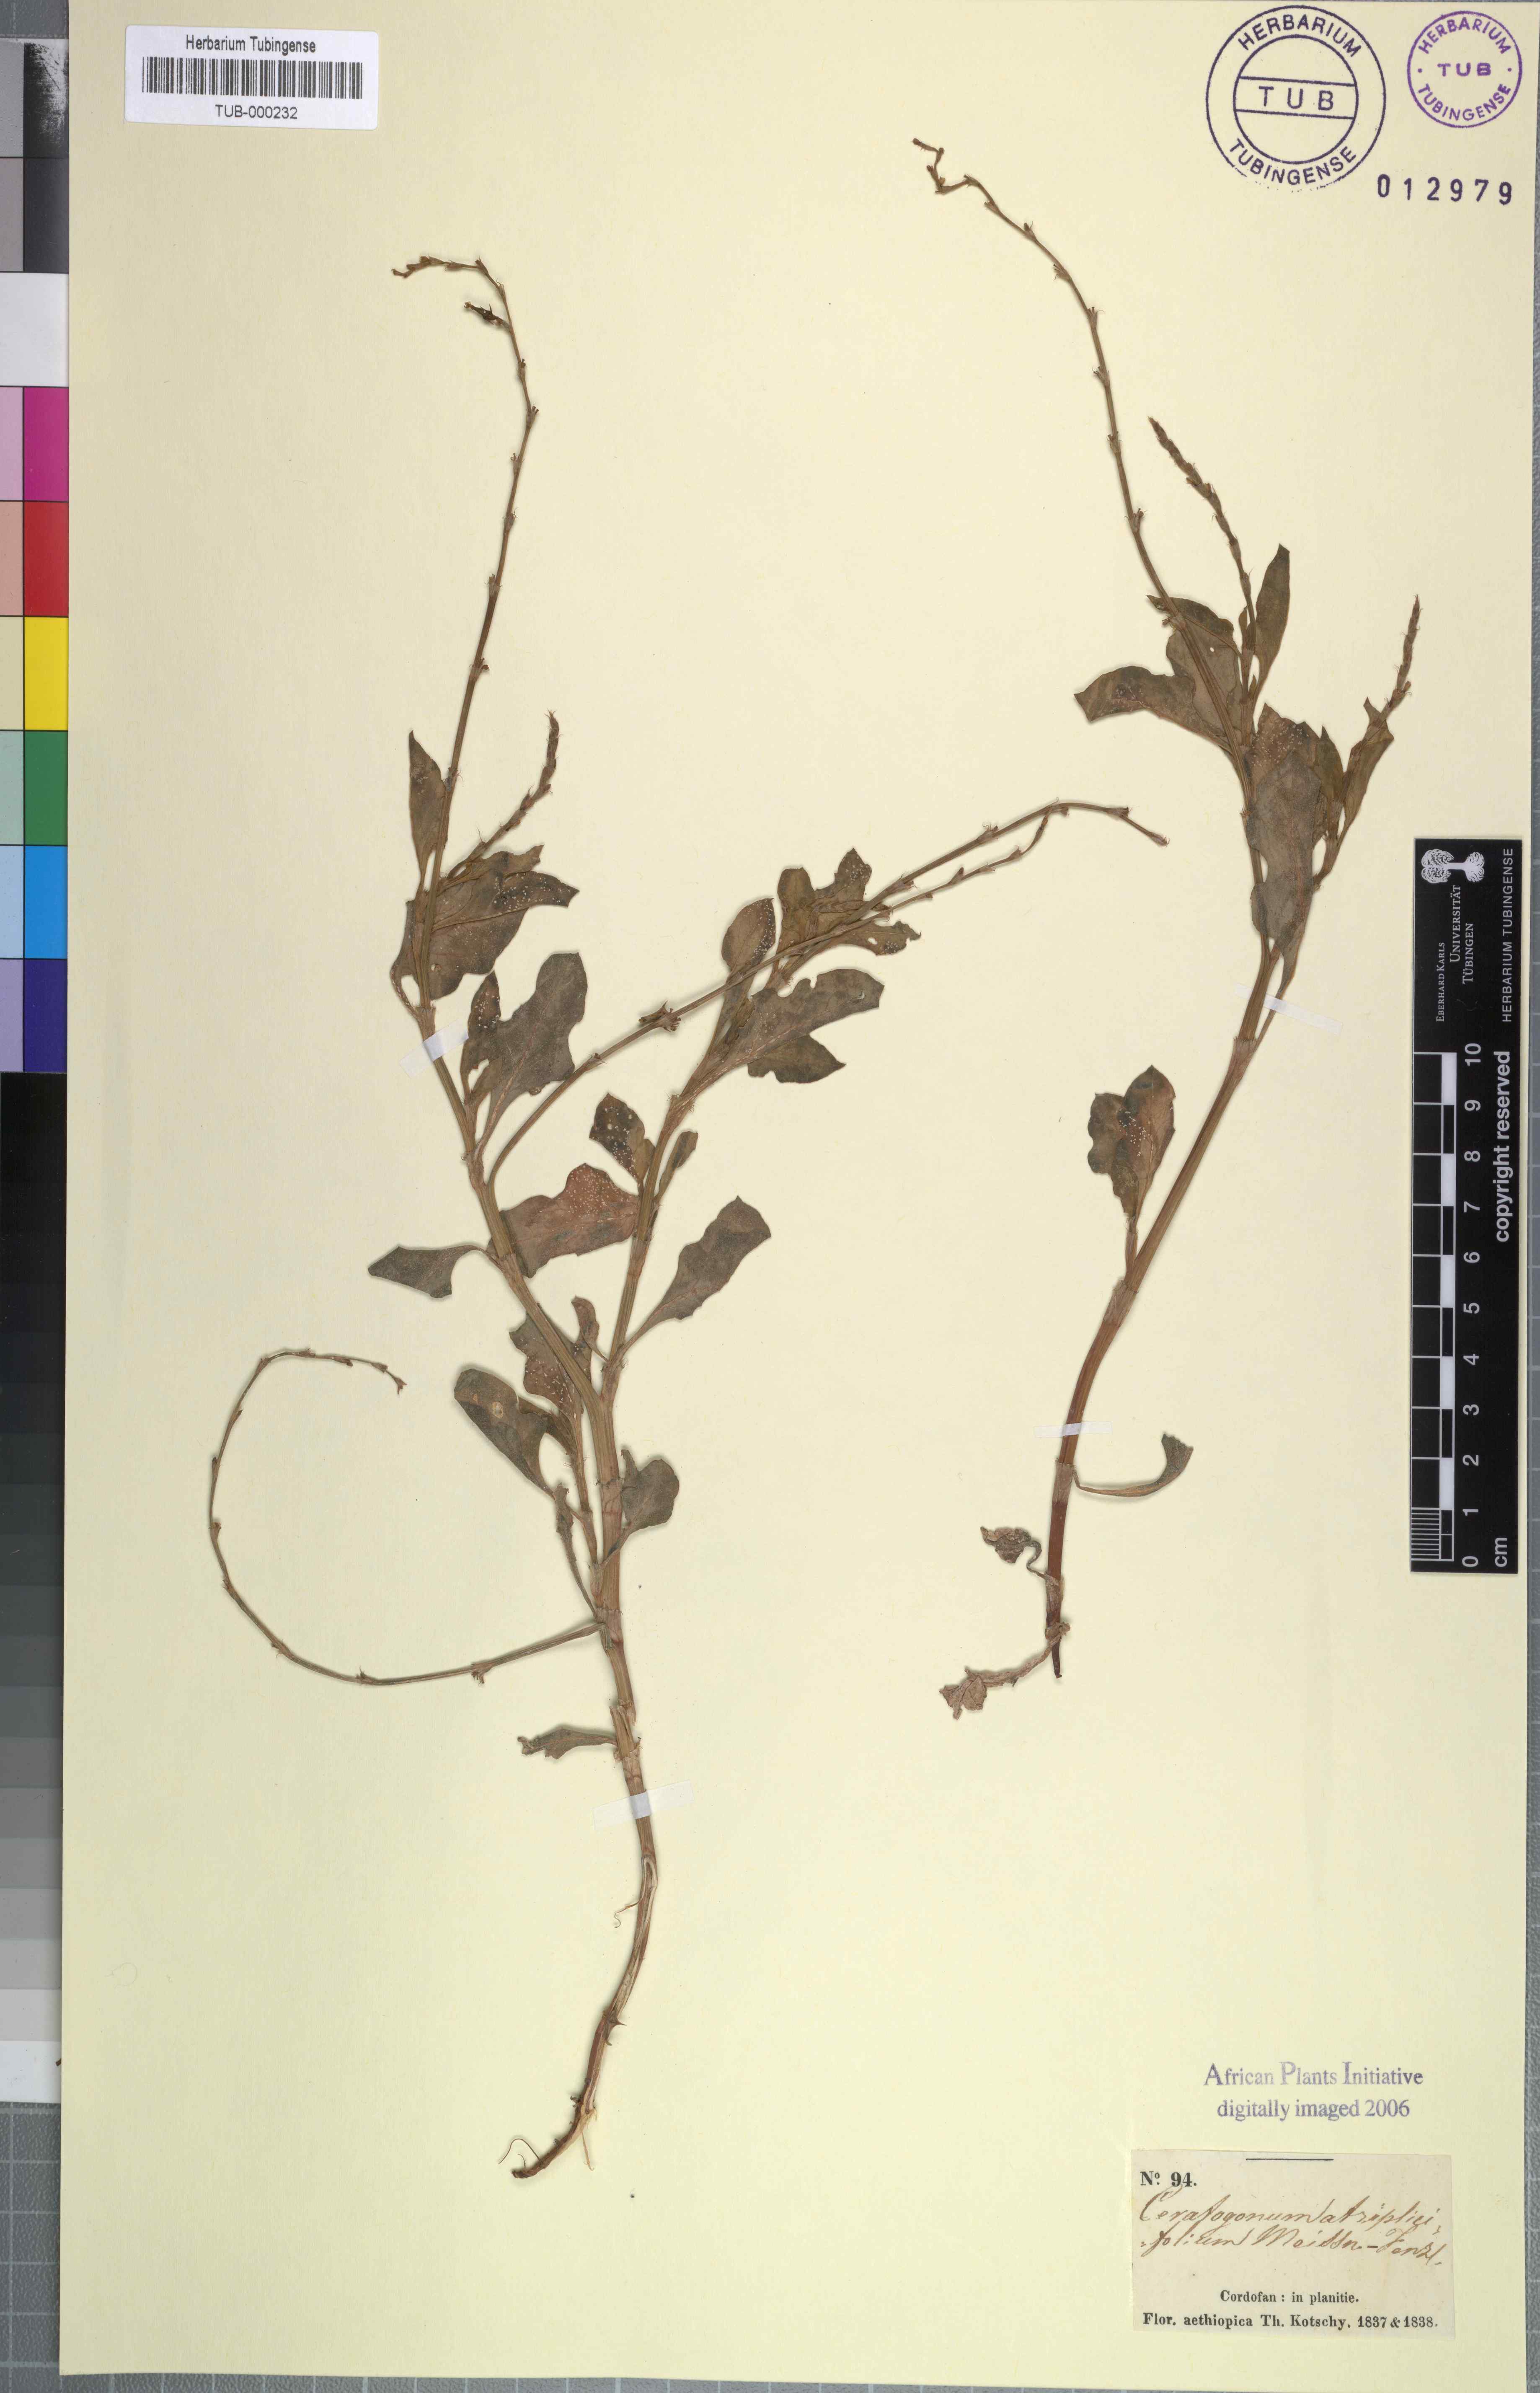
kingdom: Plantae
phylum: Tracheophyta
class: Magnoliopsida
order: Caryophyllales
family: Polygonaceae
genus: Oxygonum
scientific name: Oxygonum atriplicifolium
